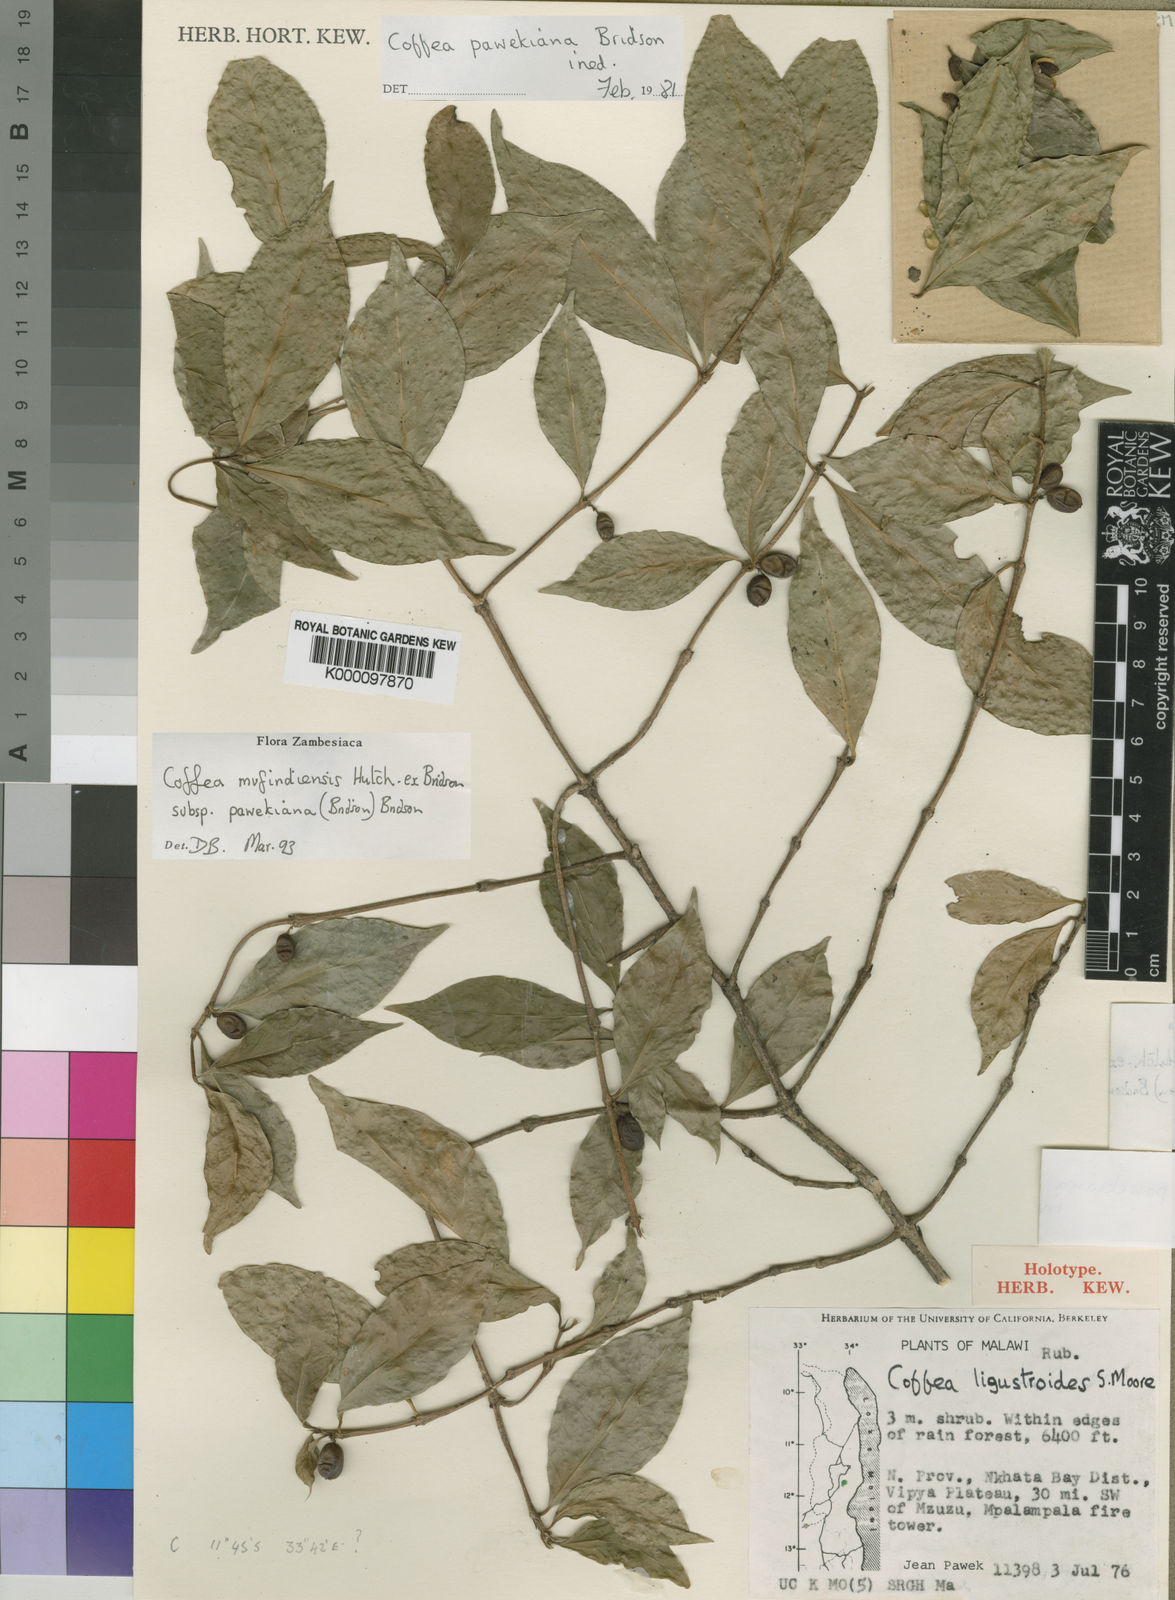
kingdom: Plantae
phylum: Tracheophyta
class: Magnoliopsida
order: Gentianales
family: Rubiaceae
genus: Coffea
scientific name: Coffea mufindiensis
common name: Wild coffee
